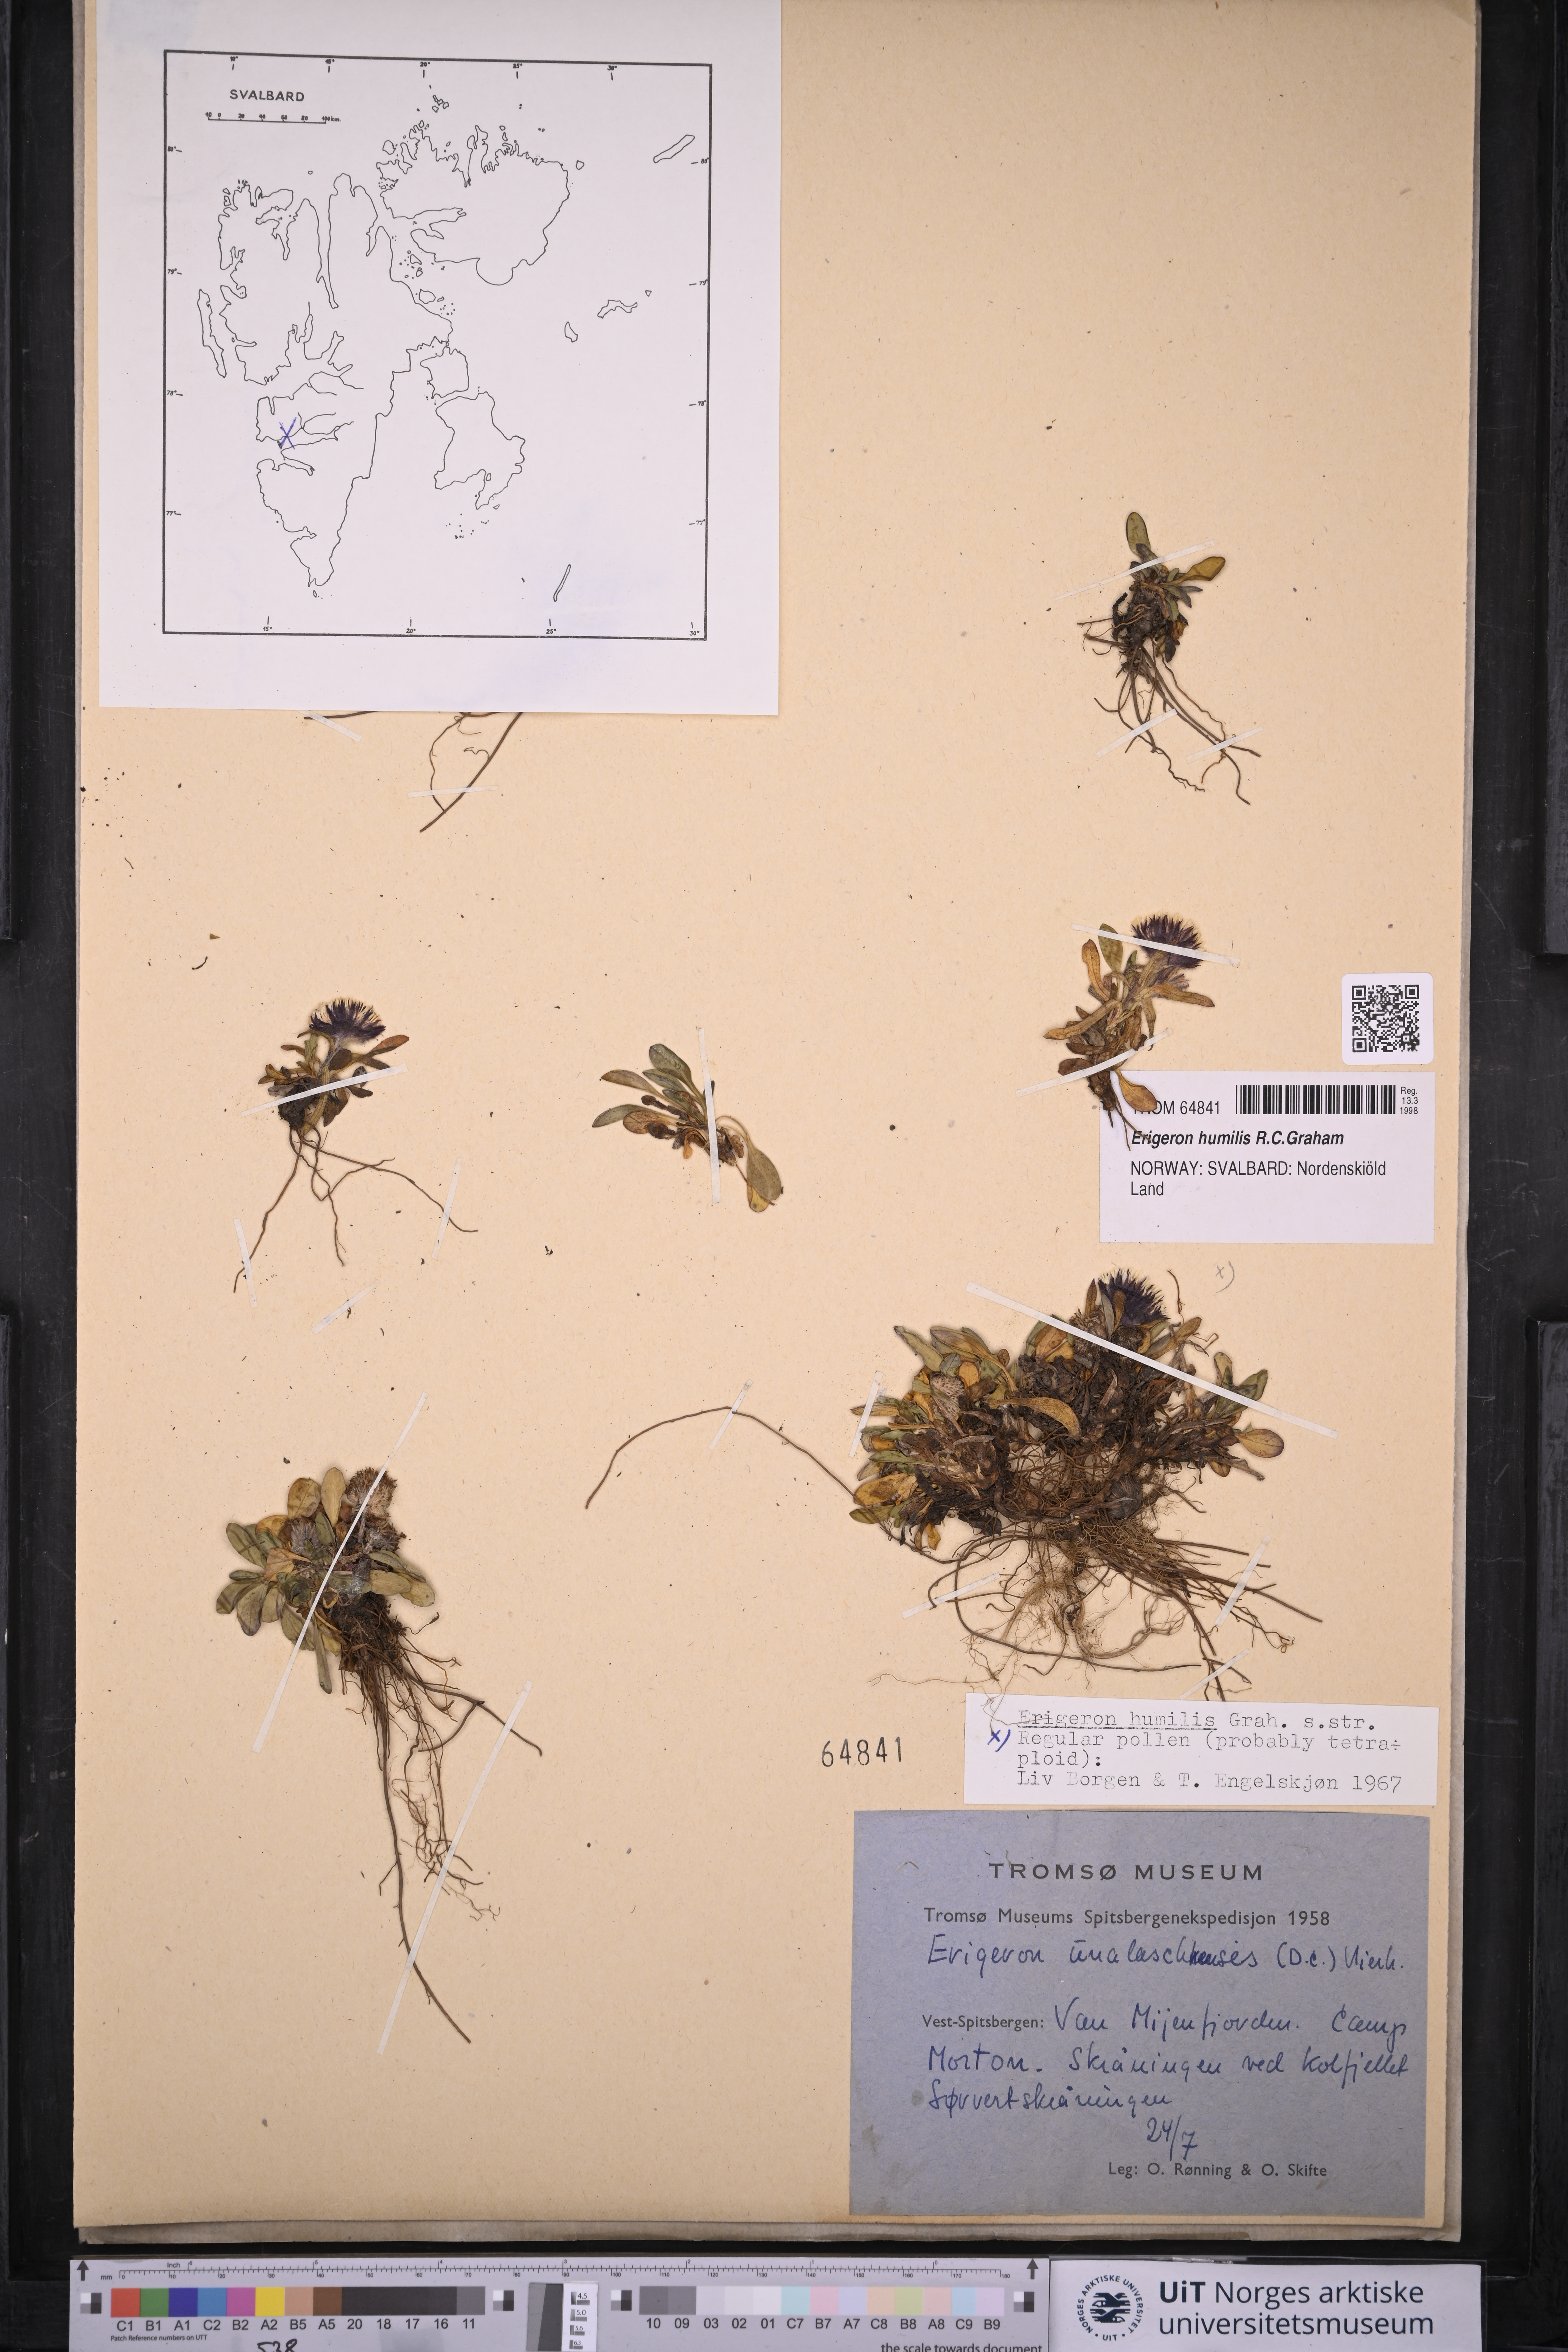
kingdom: Plantae
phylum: Tracheophyta
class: Magnoliopsida
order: Asterales
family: Asteraceae
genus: Erigeron
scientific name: Erigeron humilis
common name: Arctic-alpine fleabane
